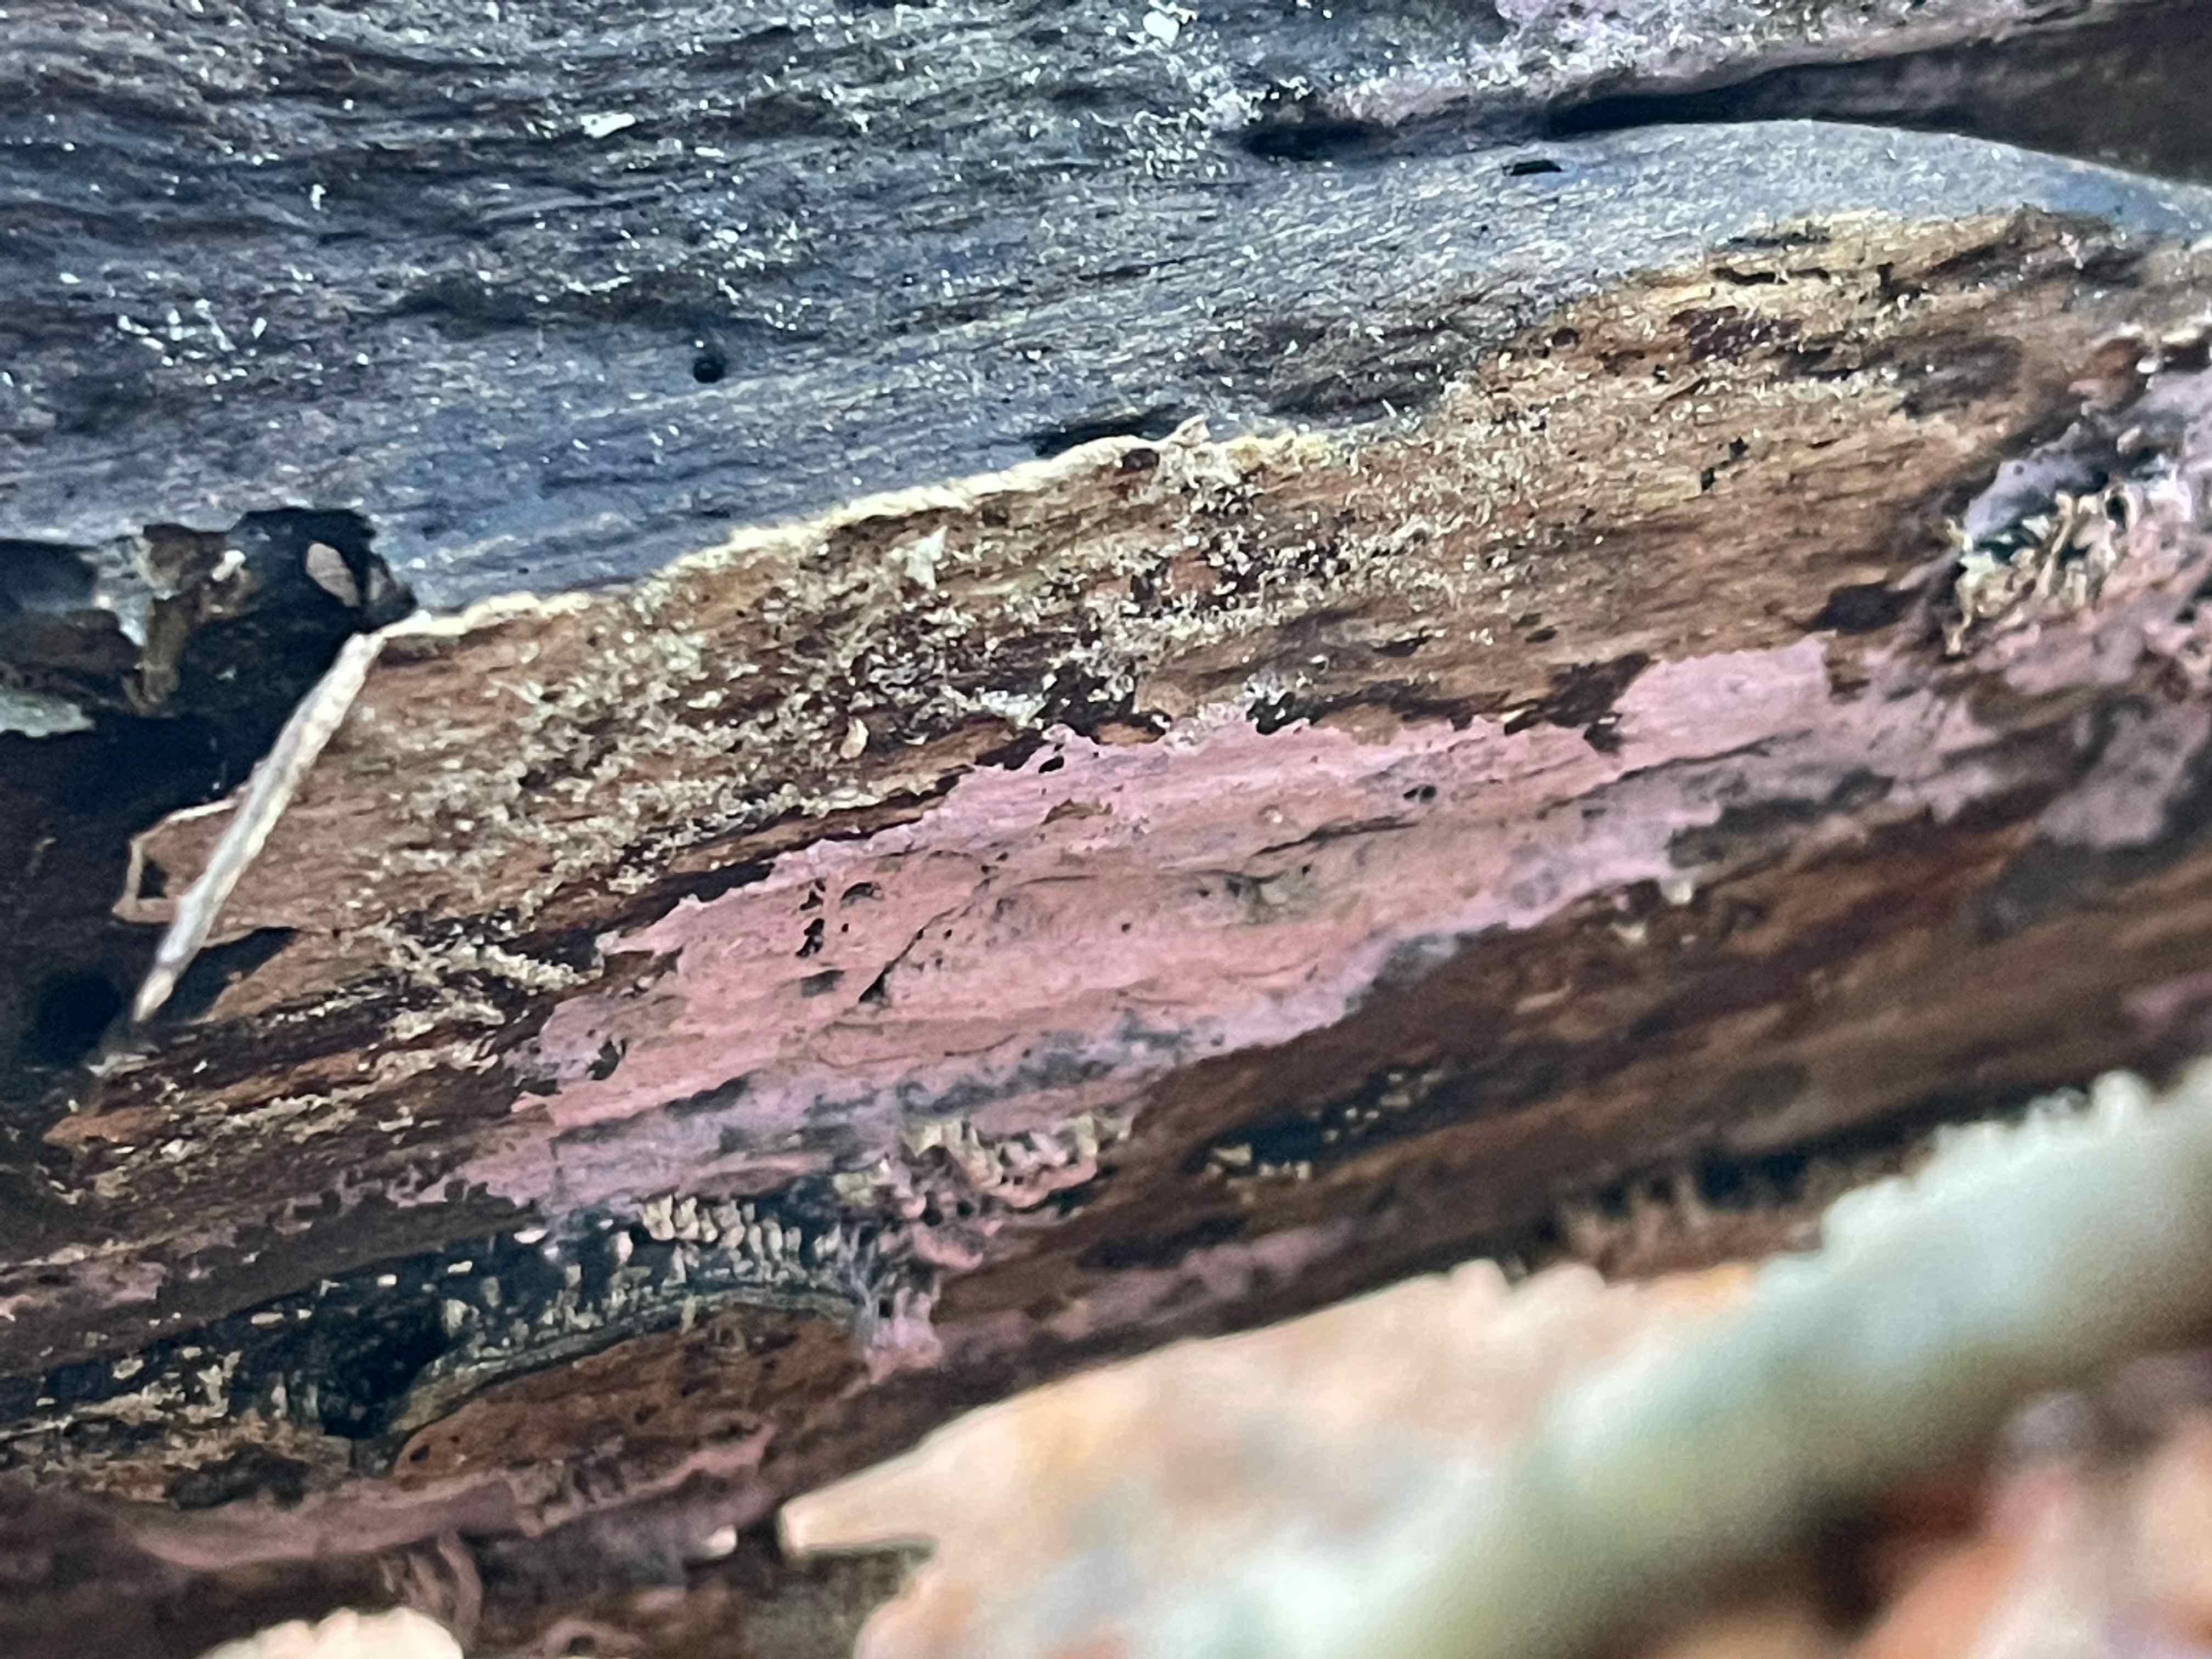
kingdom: Fungi
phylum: Basidiomycota
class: Agaricomycetes
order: Cantharellales
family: Tulasnellaceae
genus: Tulasnella
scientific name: Tulasnella violea
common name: violet ballonhinde
